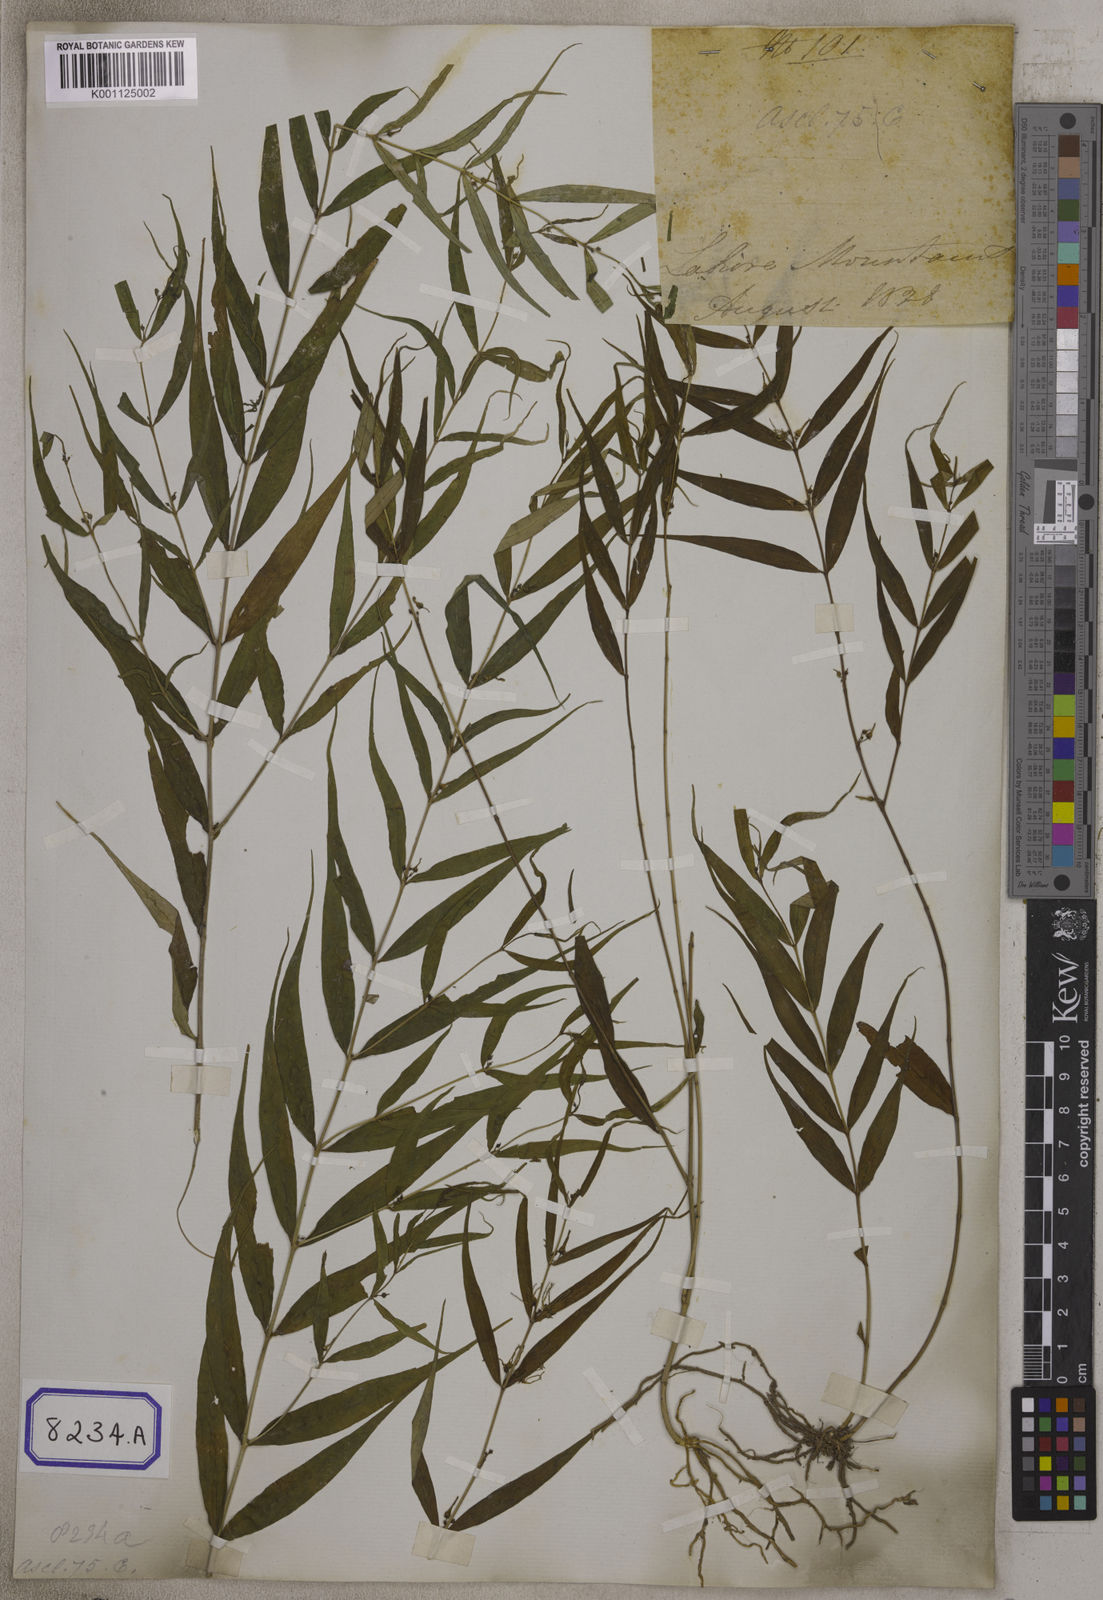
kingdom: Plantae
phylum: Tracheophyta
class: Magnoliopsida
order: Gentianales
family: Apocynaceae
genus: Pentasachme
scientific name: Pentasachme caudatum
